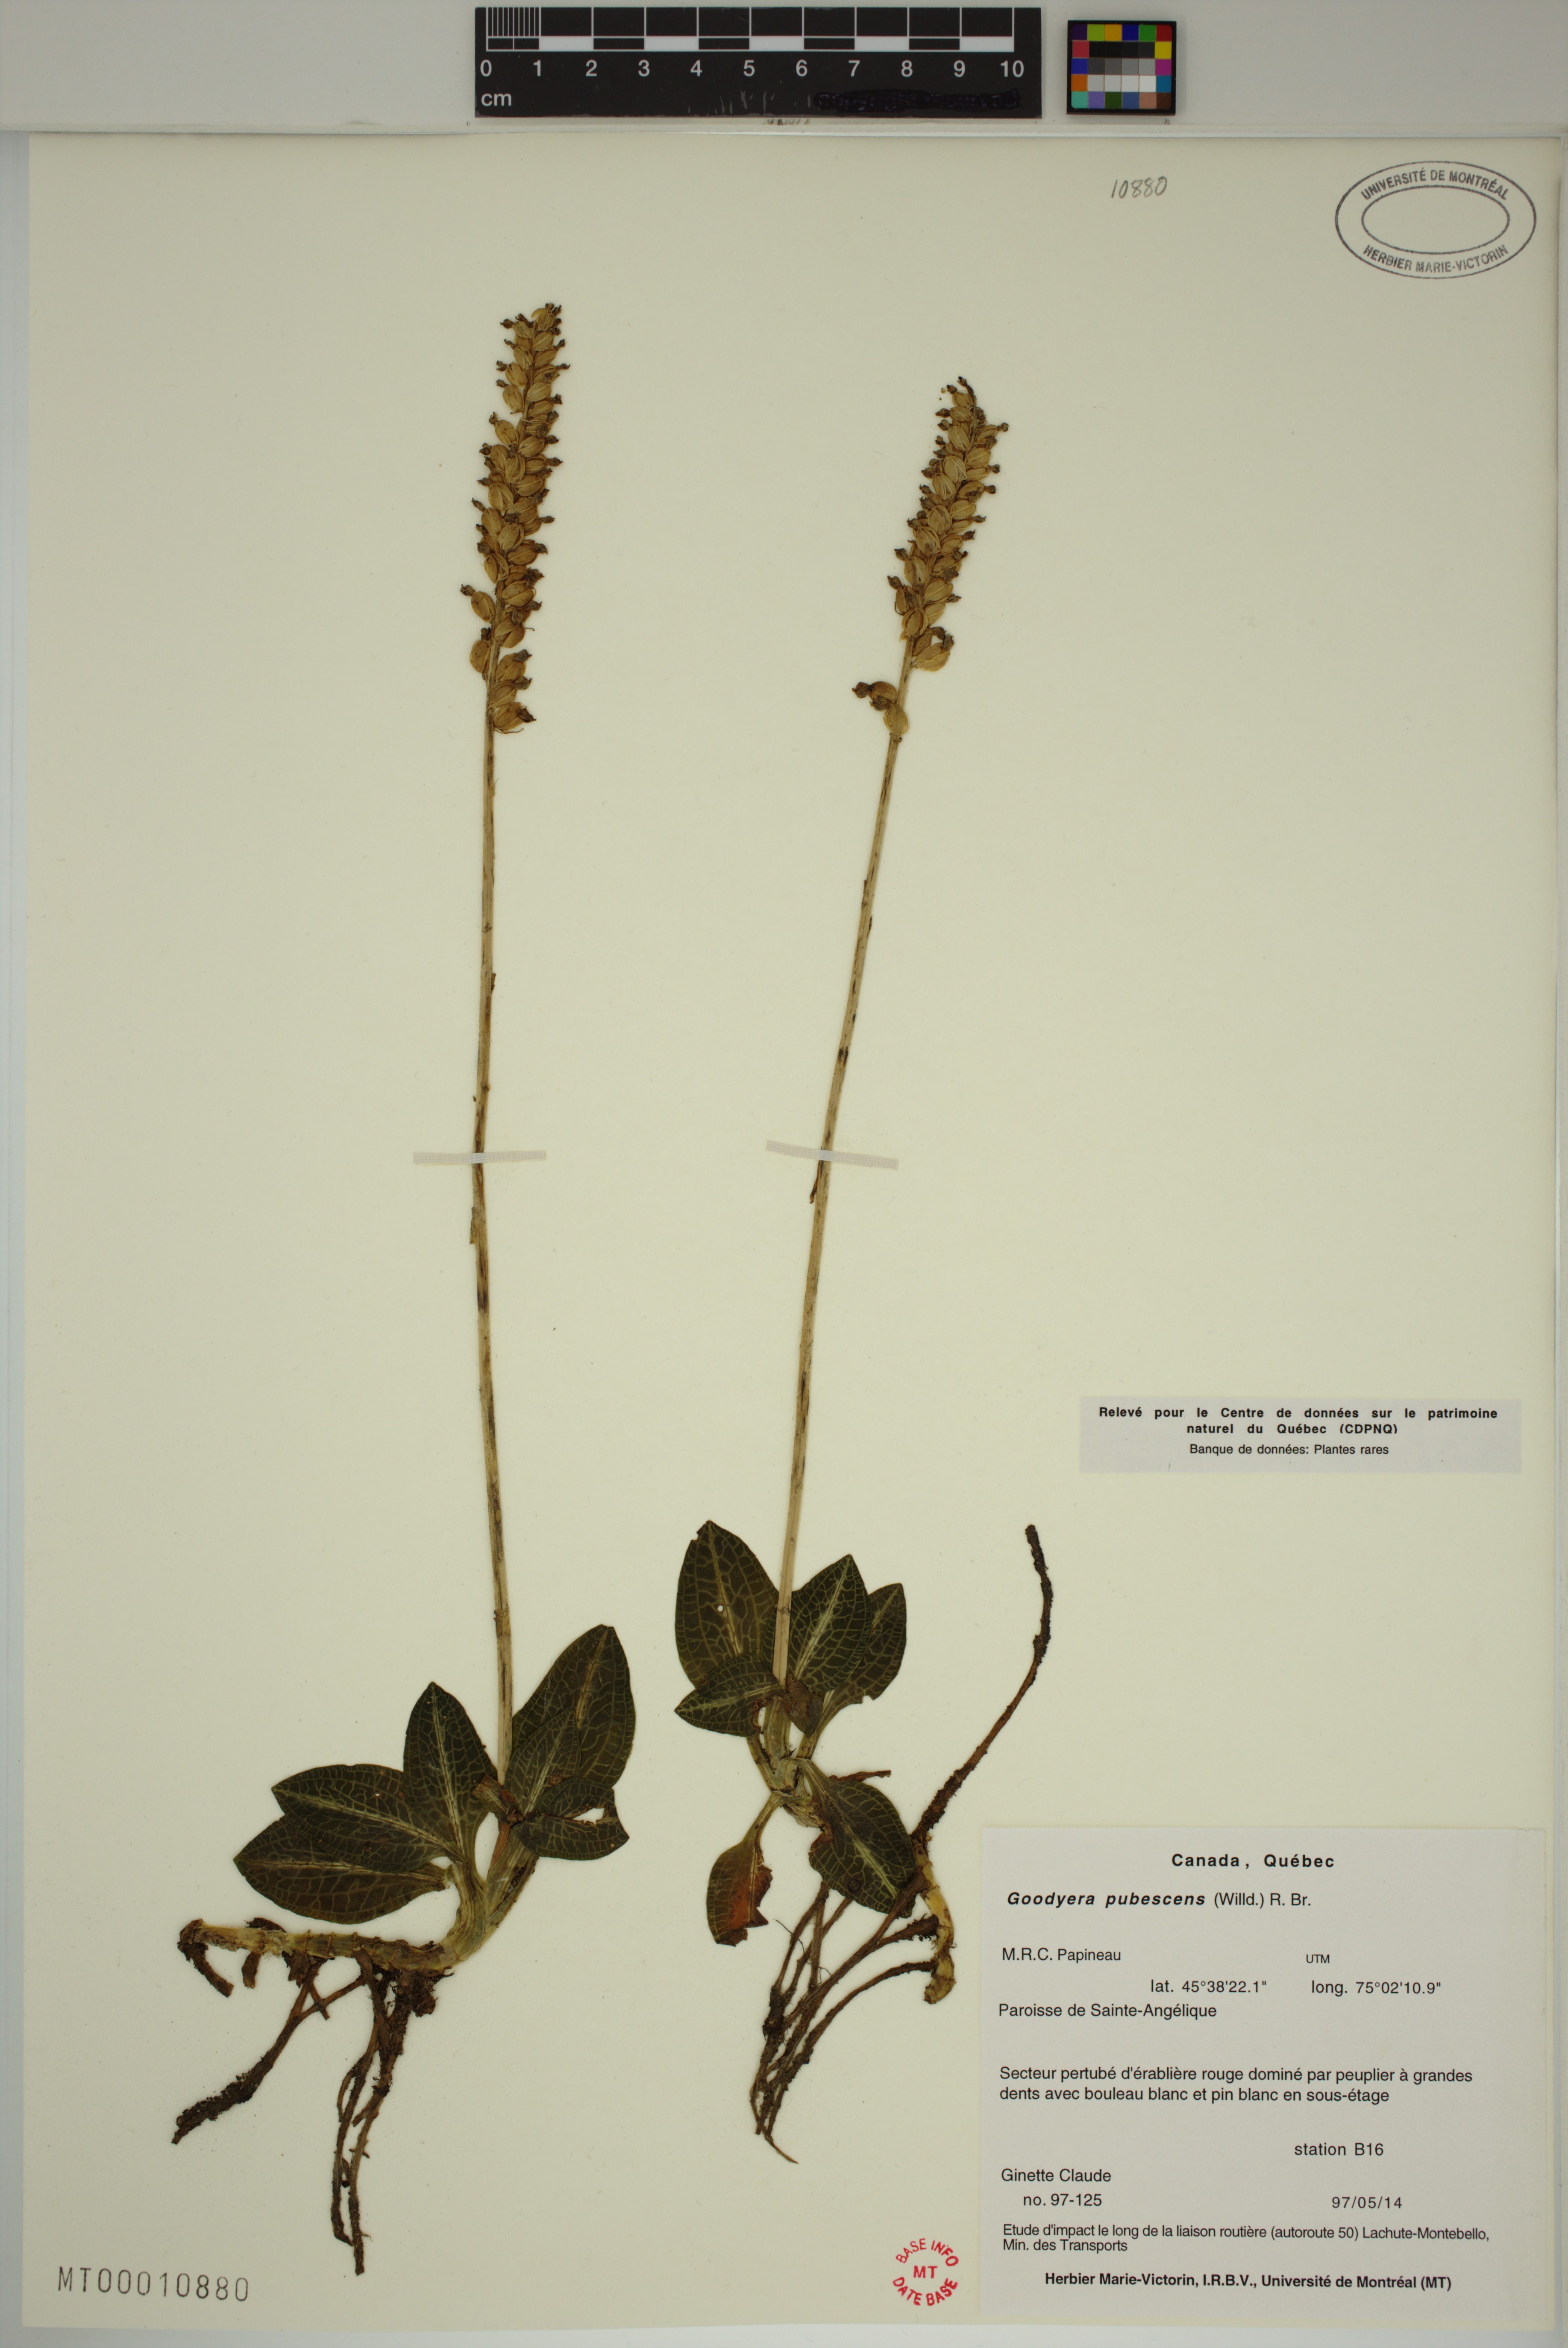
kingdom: Plantae
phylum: Tracheophyta
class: Liliopsida
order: Asparagales
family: Orchidaceae
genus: Goodyera
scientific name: Goodyera pubescens
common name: Downy rattlesnake-plantain
